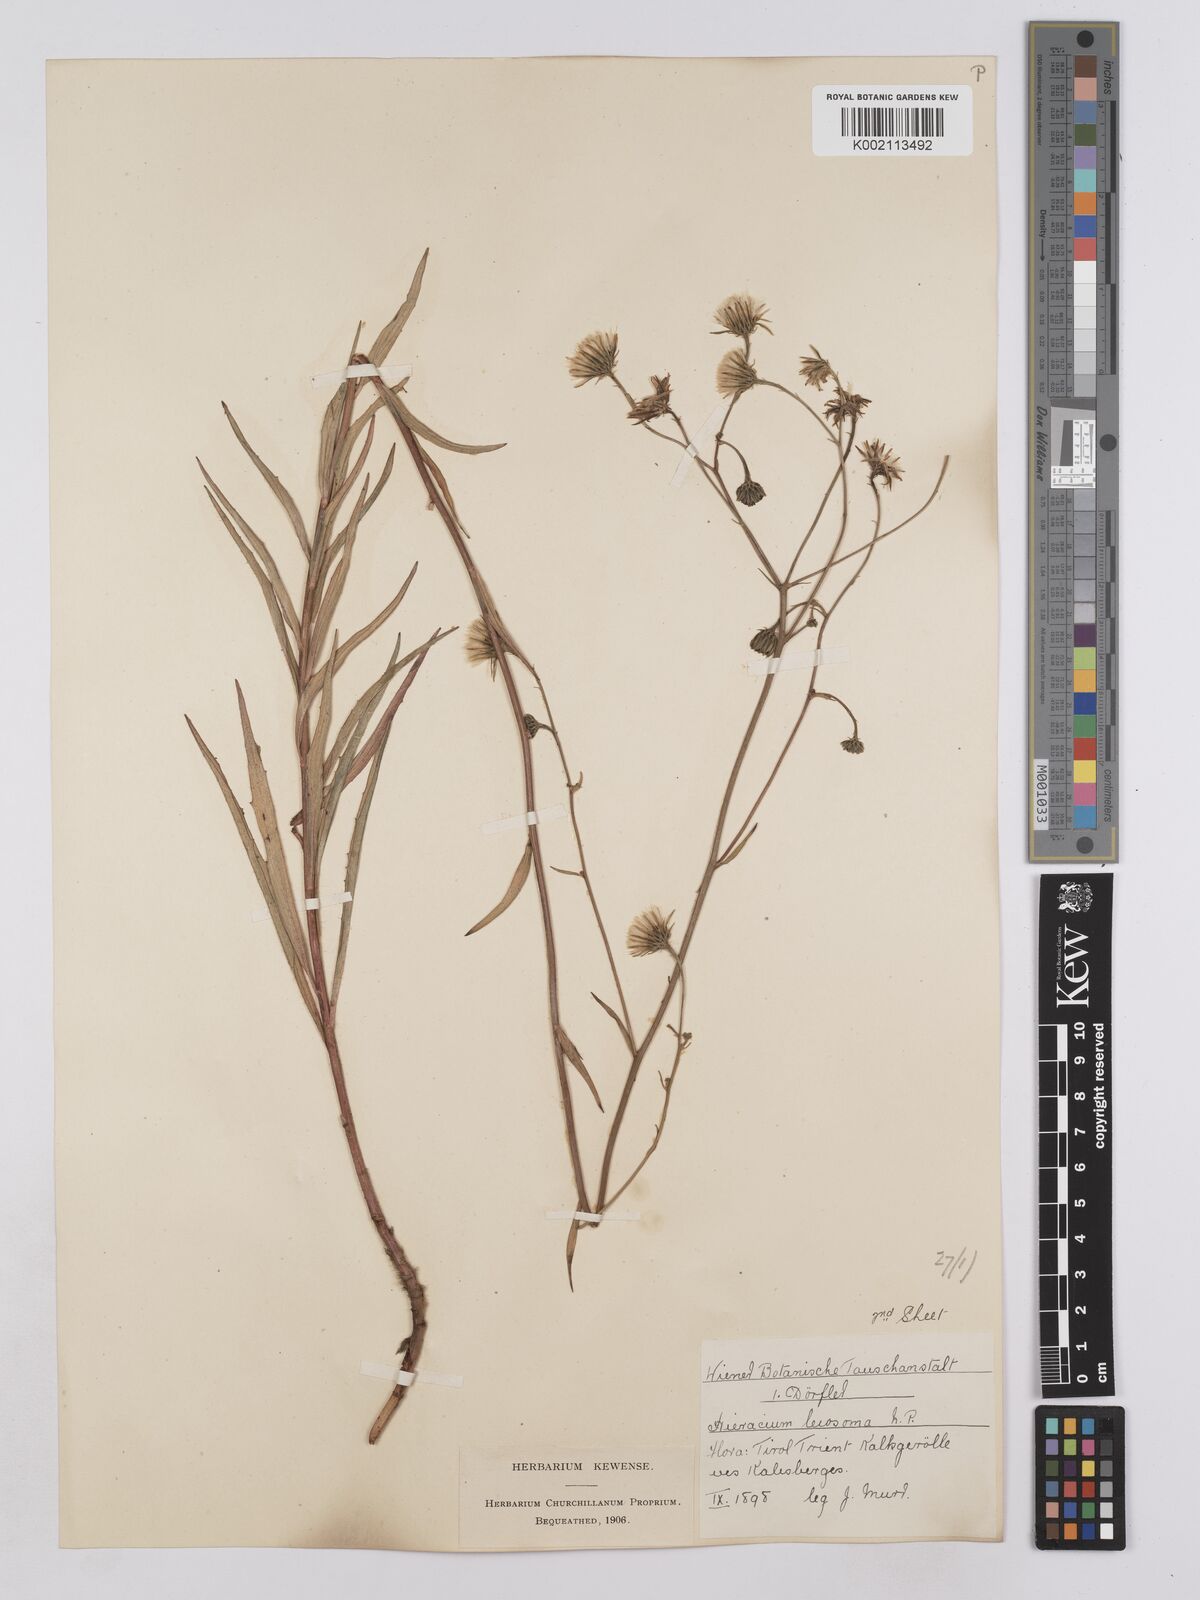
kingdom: Plantae
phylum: Tracheophyta
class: Magnoliopsida
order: Asterales
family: Asteraceae
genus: Hieracium
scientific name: Hieracium leiocephalum
